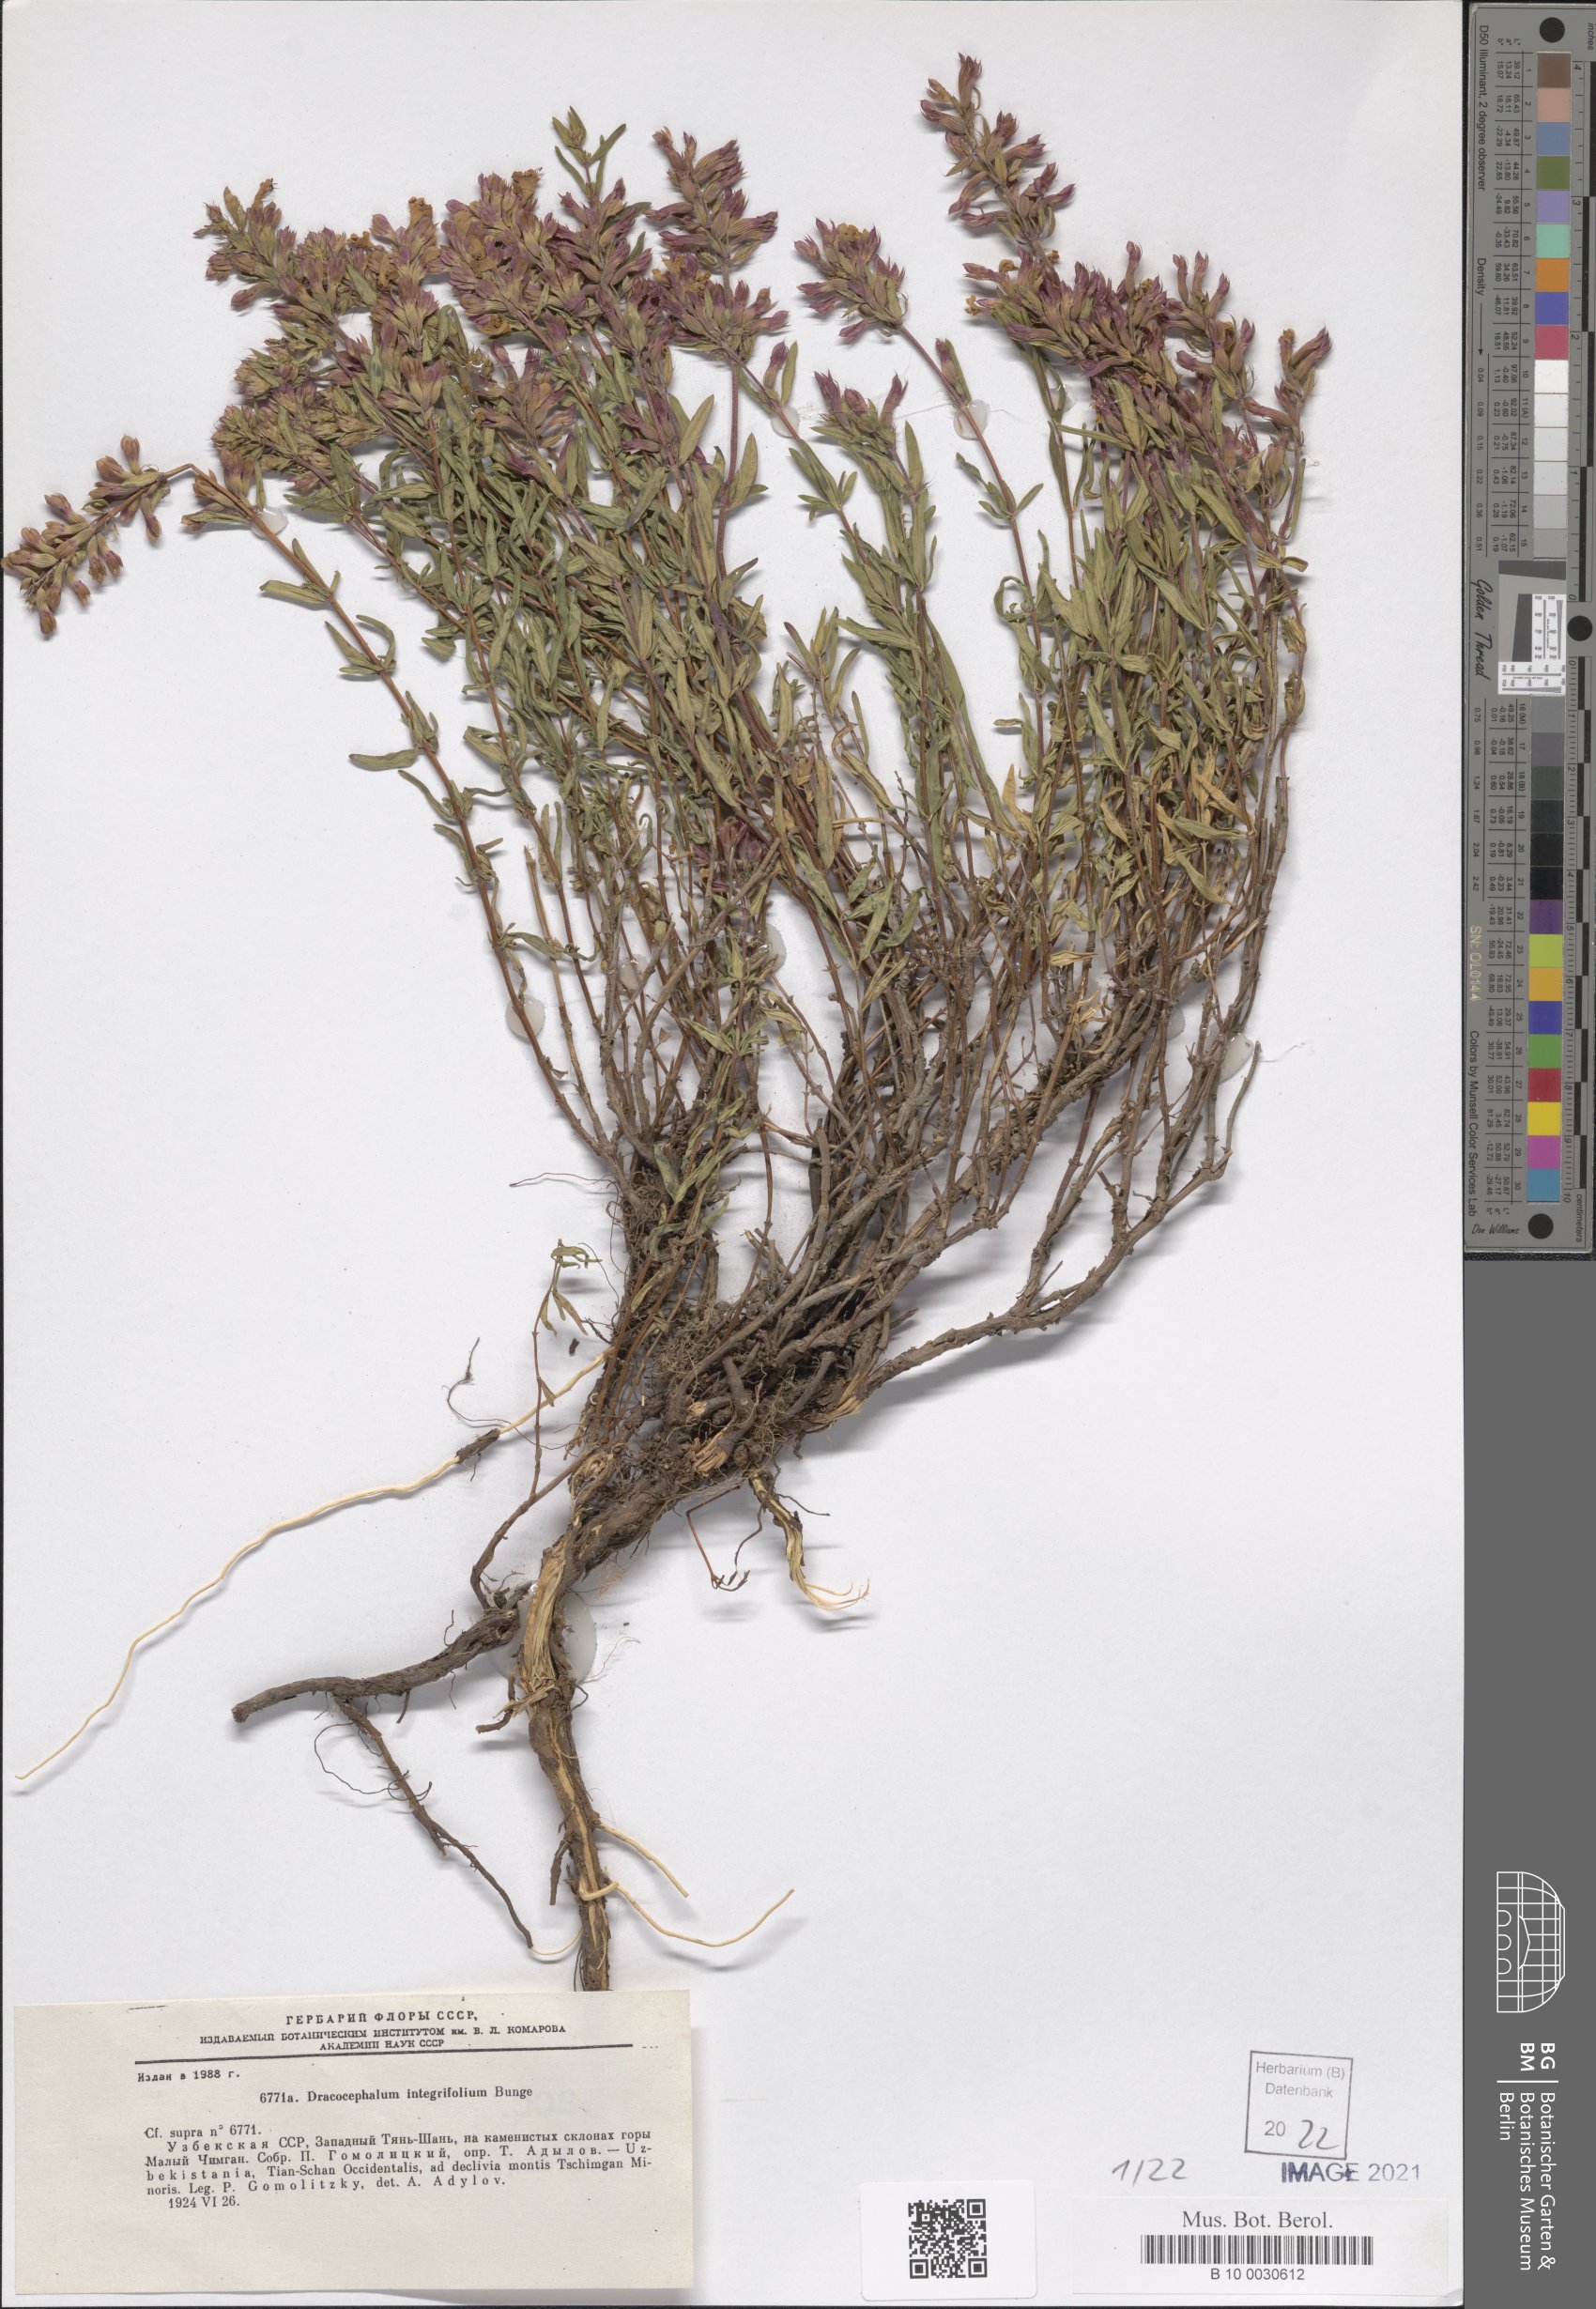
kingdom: Plantae
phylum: Tracheophyta
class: Magnoliopsida
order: Lamiales
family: Lamiaceae
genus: Dracocephalum
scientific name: Dracocephalum integrifolium
